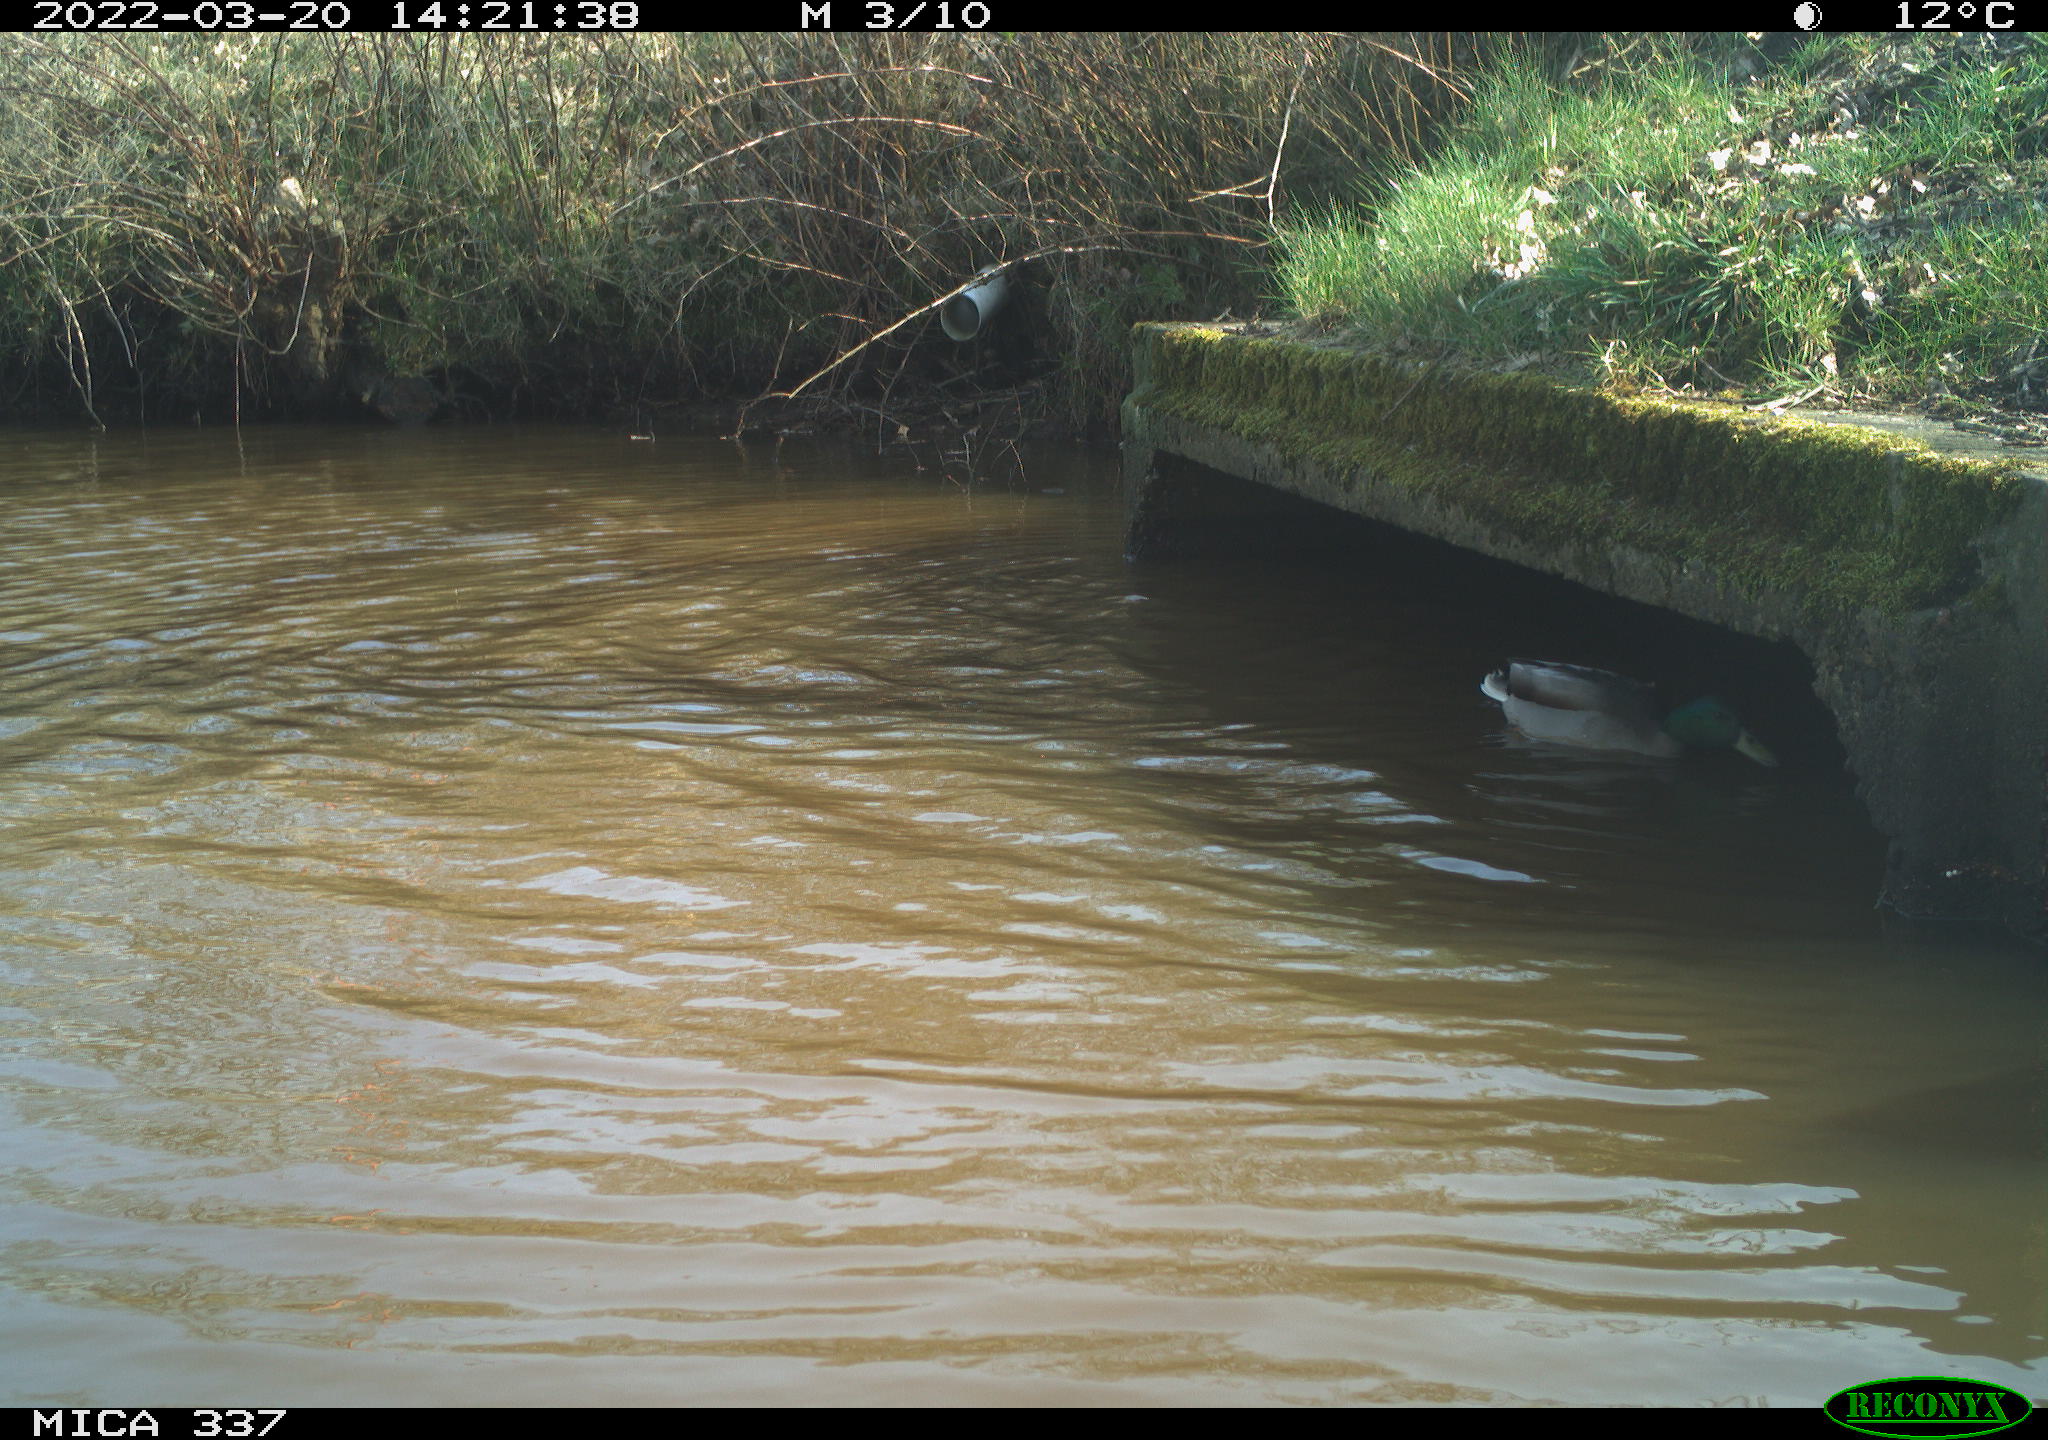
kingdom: Animalia
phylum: Chordata
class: Aves
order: Anseriformes
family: Anatidae
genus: Anas
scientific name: Anas platyrhynchos
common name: Mallard
